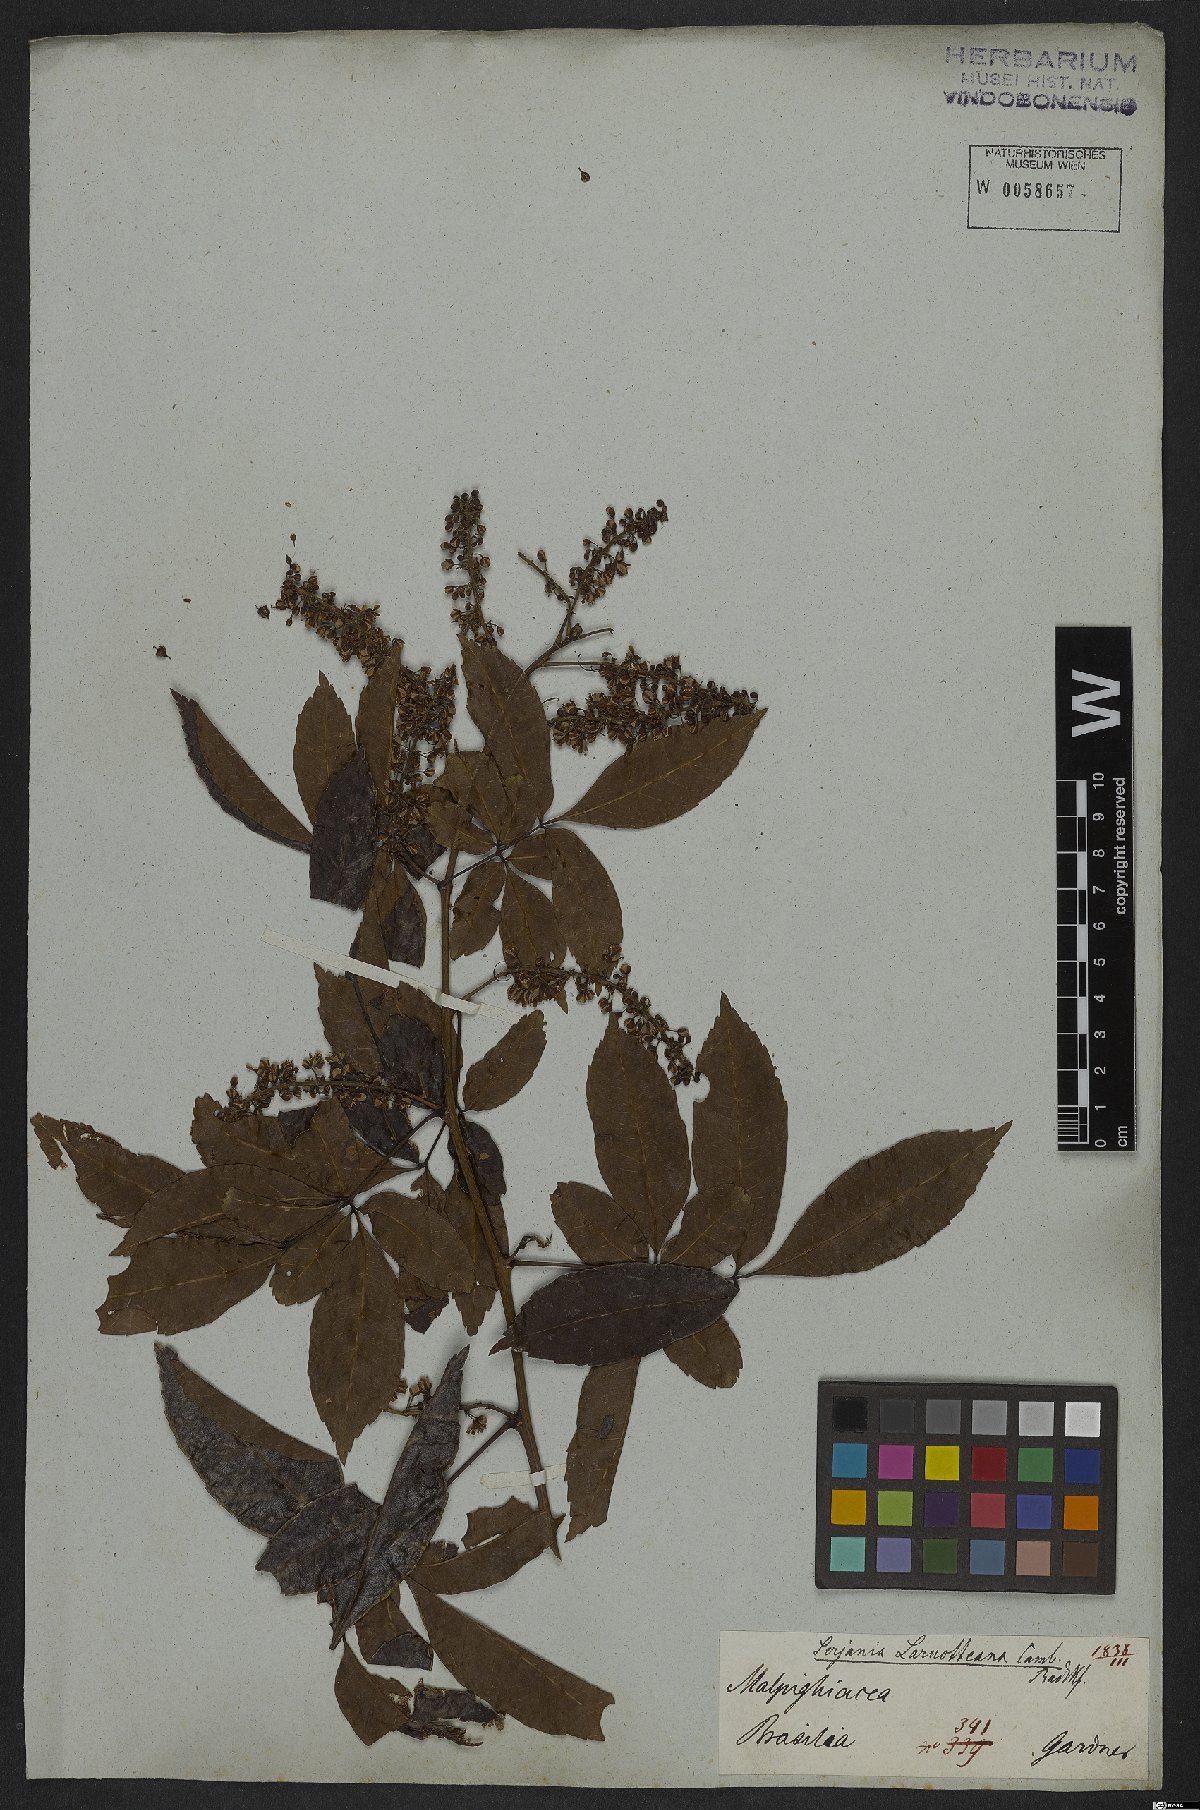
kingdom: Plantae
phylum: Tracheophyta
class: Magnoliopsida
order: Sapindales
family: Sapindaceae
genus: Serjania
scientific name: Serjania laruotteana
